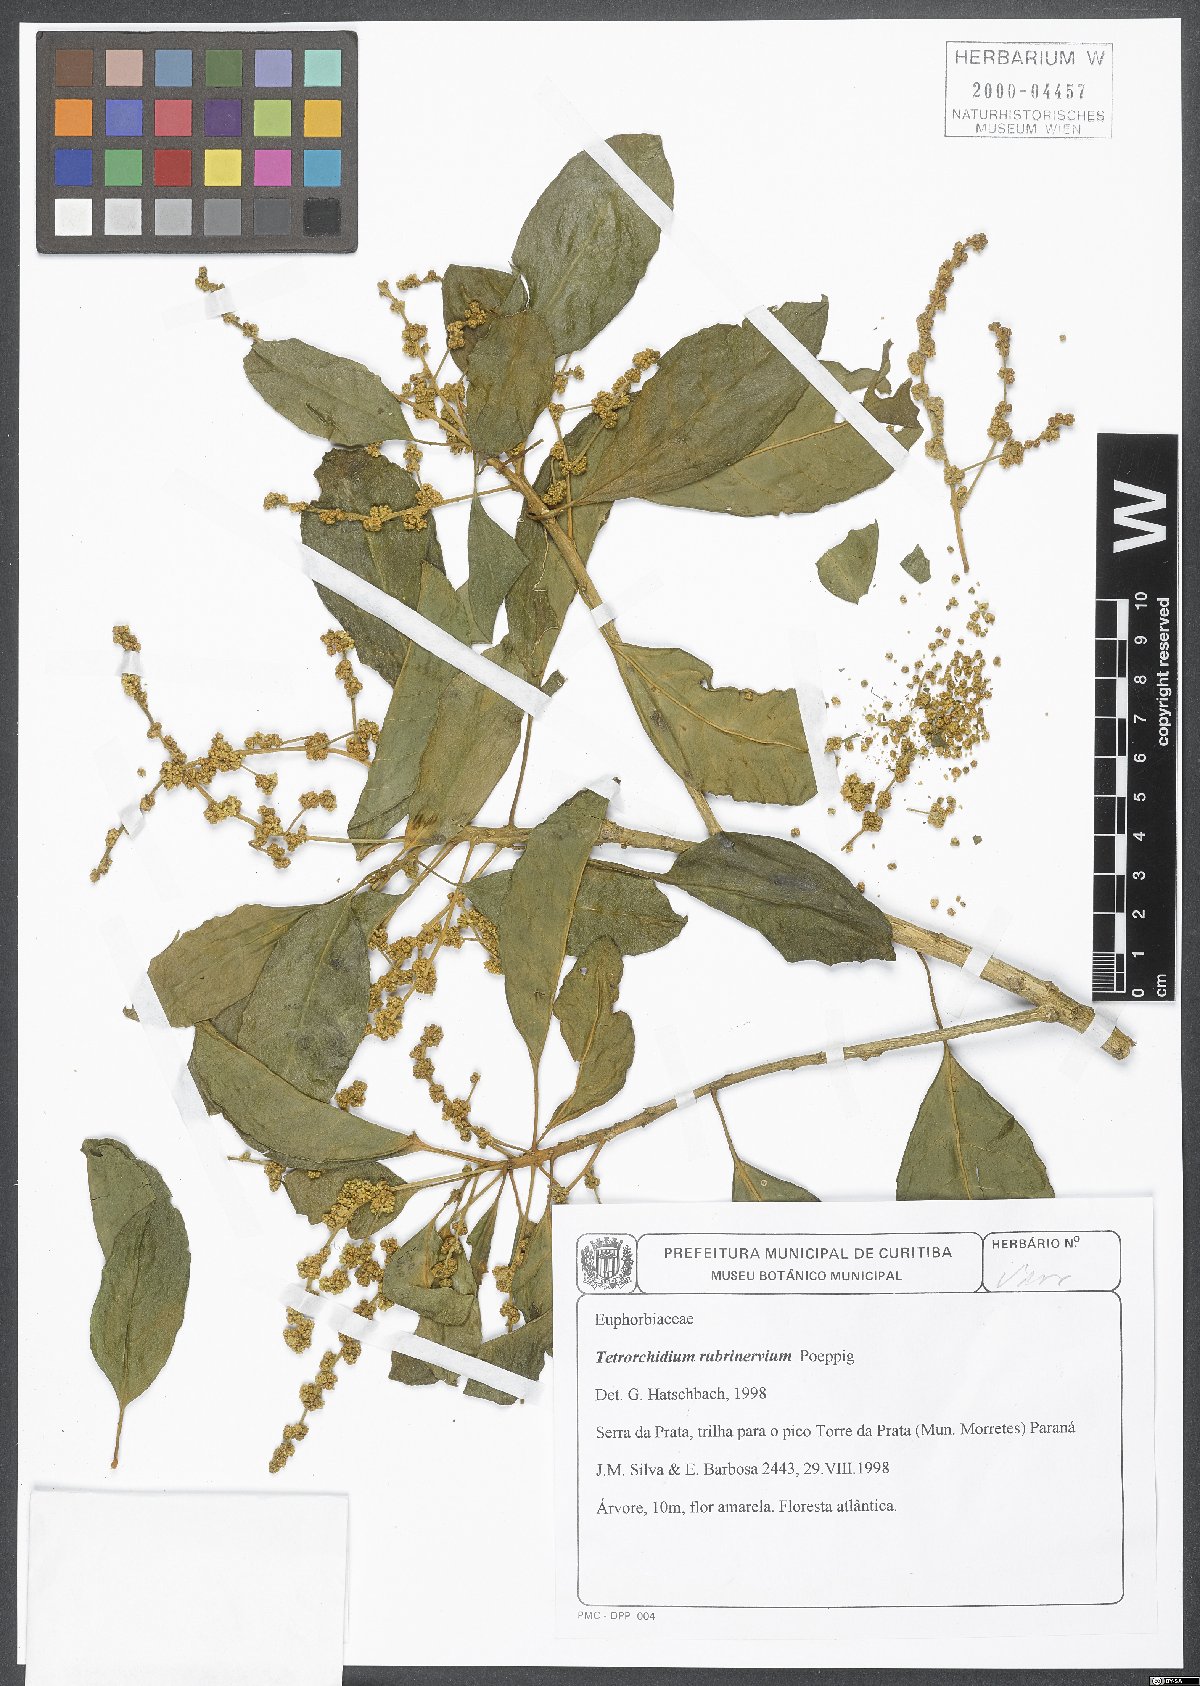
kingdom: Plantae
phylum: Tracheophyta
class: Magnoliopsida
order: Malpighiales
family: Euphorbiaceae
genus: Tetrorchidium
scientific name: Tetrorchidium rubrivenium
